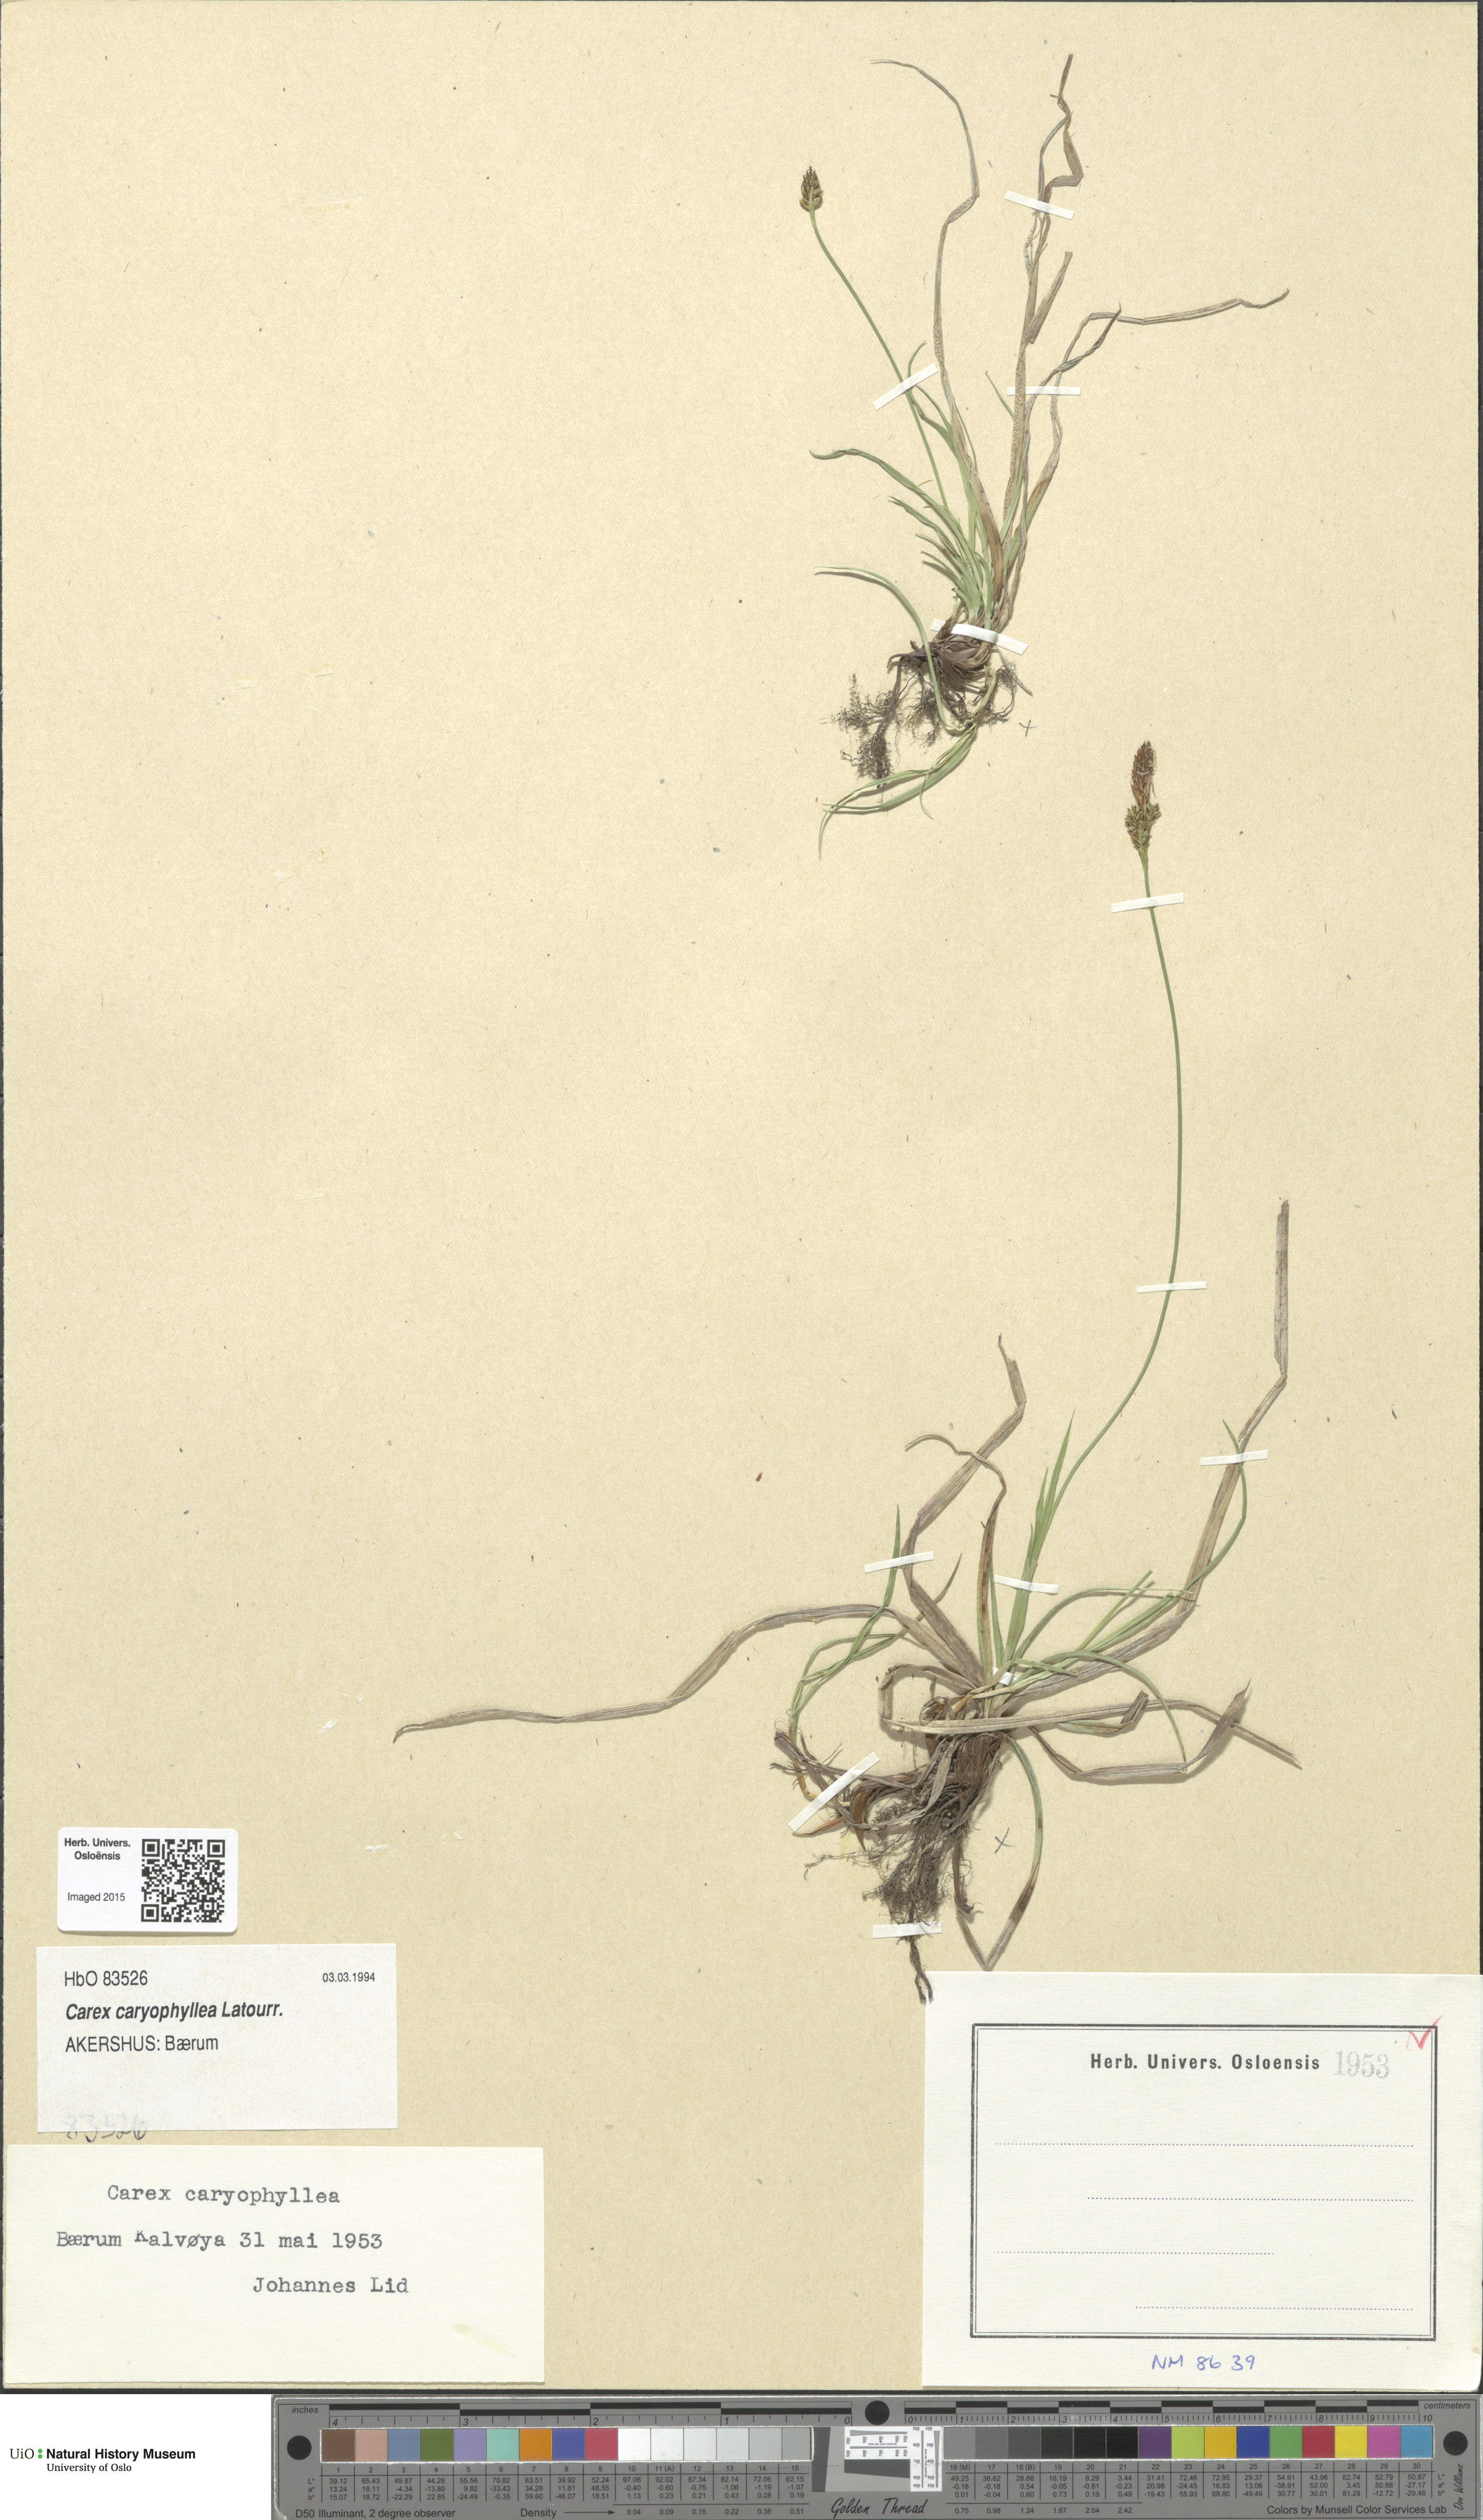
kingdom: Plantae
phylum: Tracheophyta
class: Liliopsida
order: Poales
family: Cyperaceae
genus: Carex
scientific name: Carex caryophyllea
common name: Spring sedge
